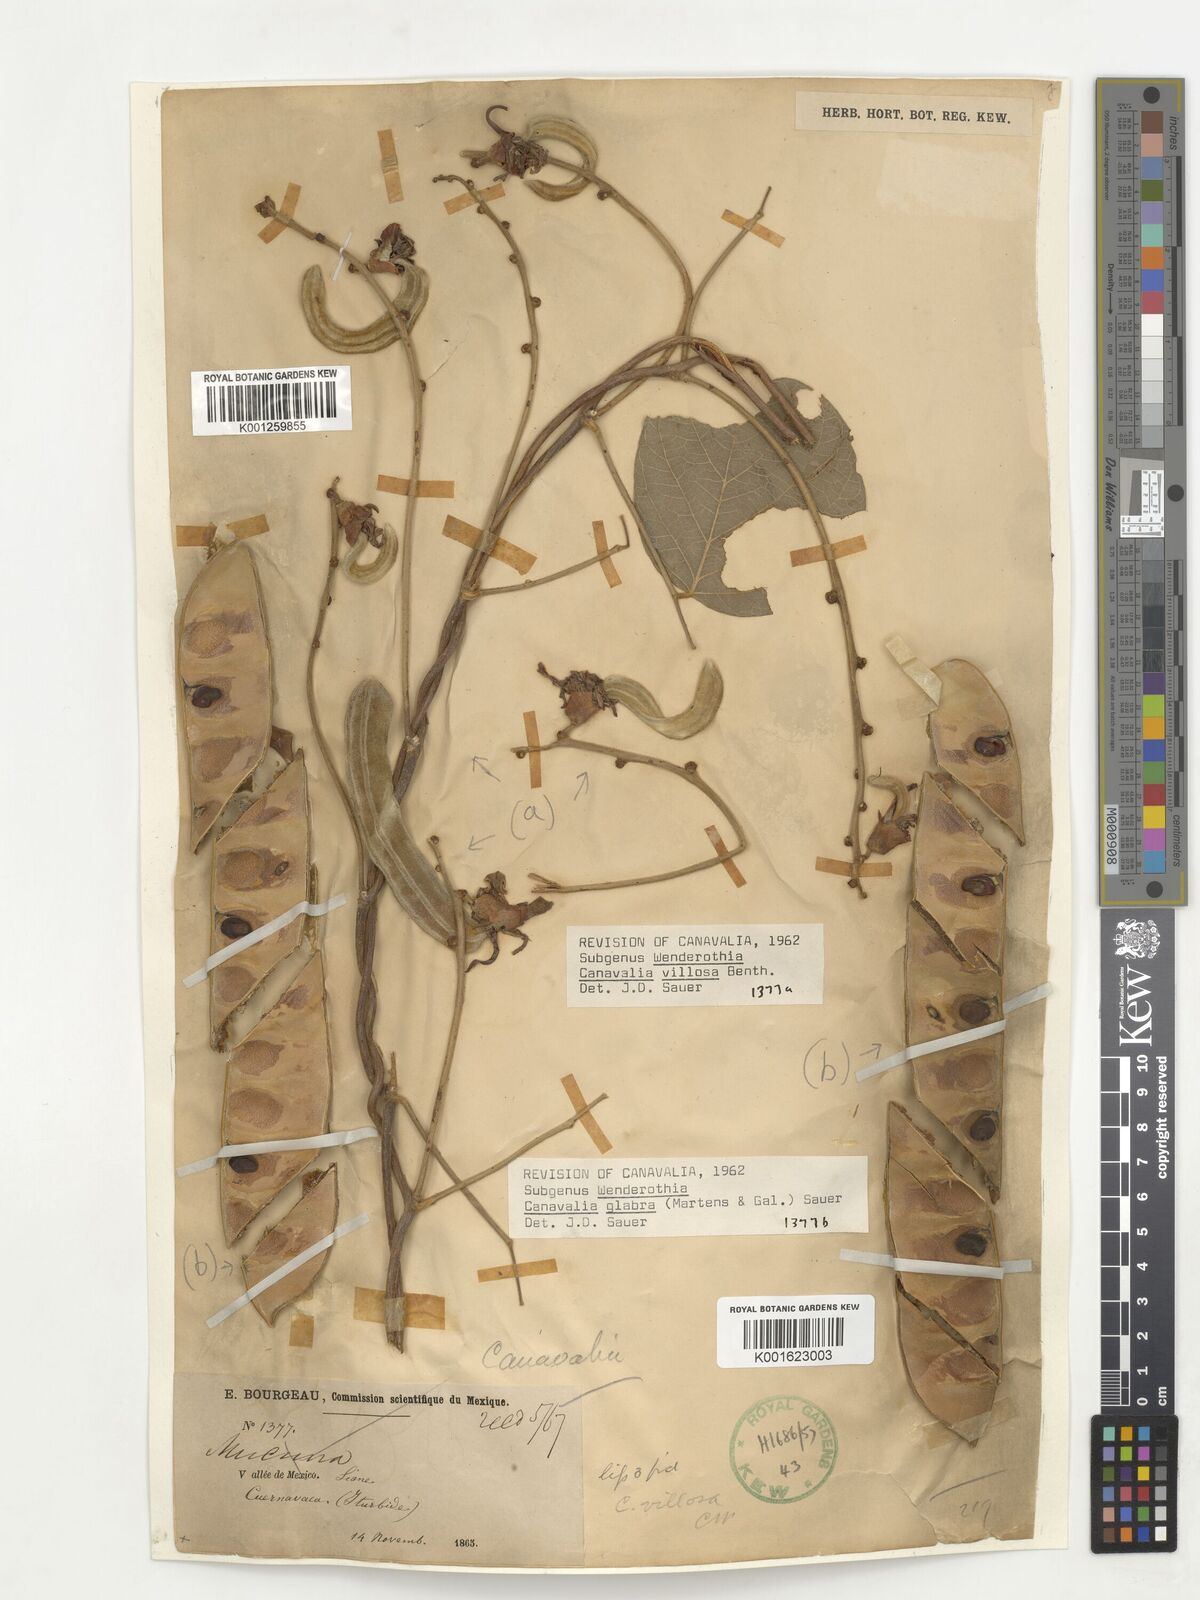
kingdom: Plantae
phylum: Tracheophyta
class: Magnoliopsida
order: Fabales
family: Fabaceae
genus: Canavalia
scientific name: Canavalia glabra
